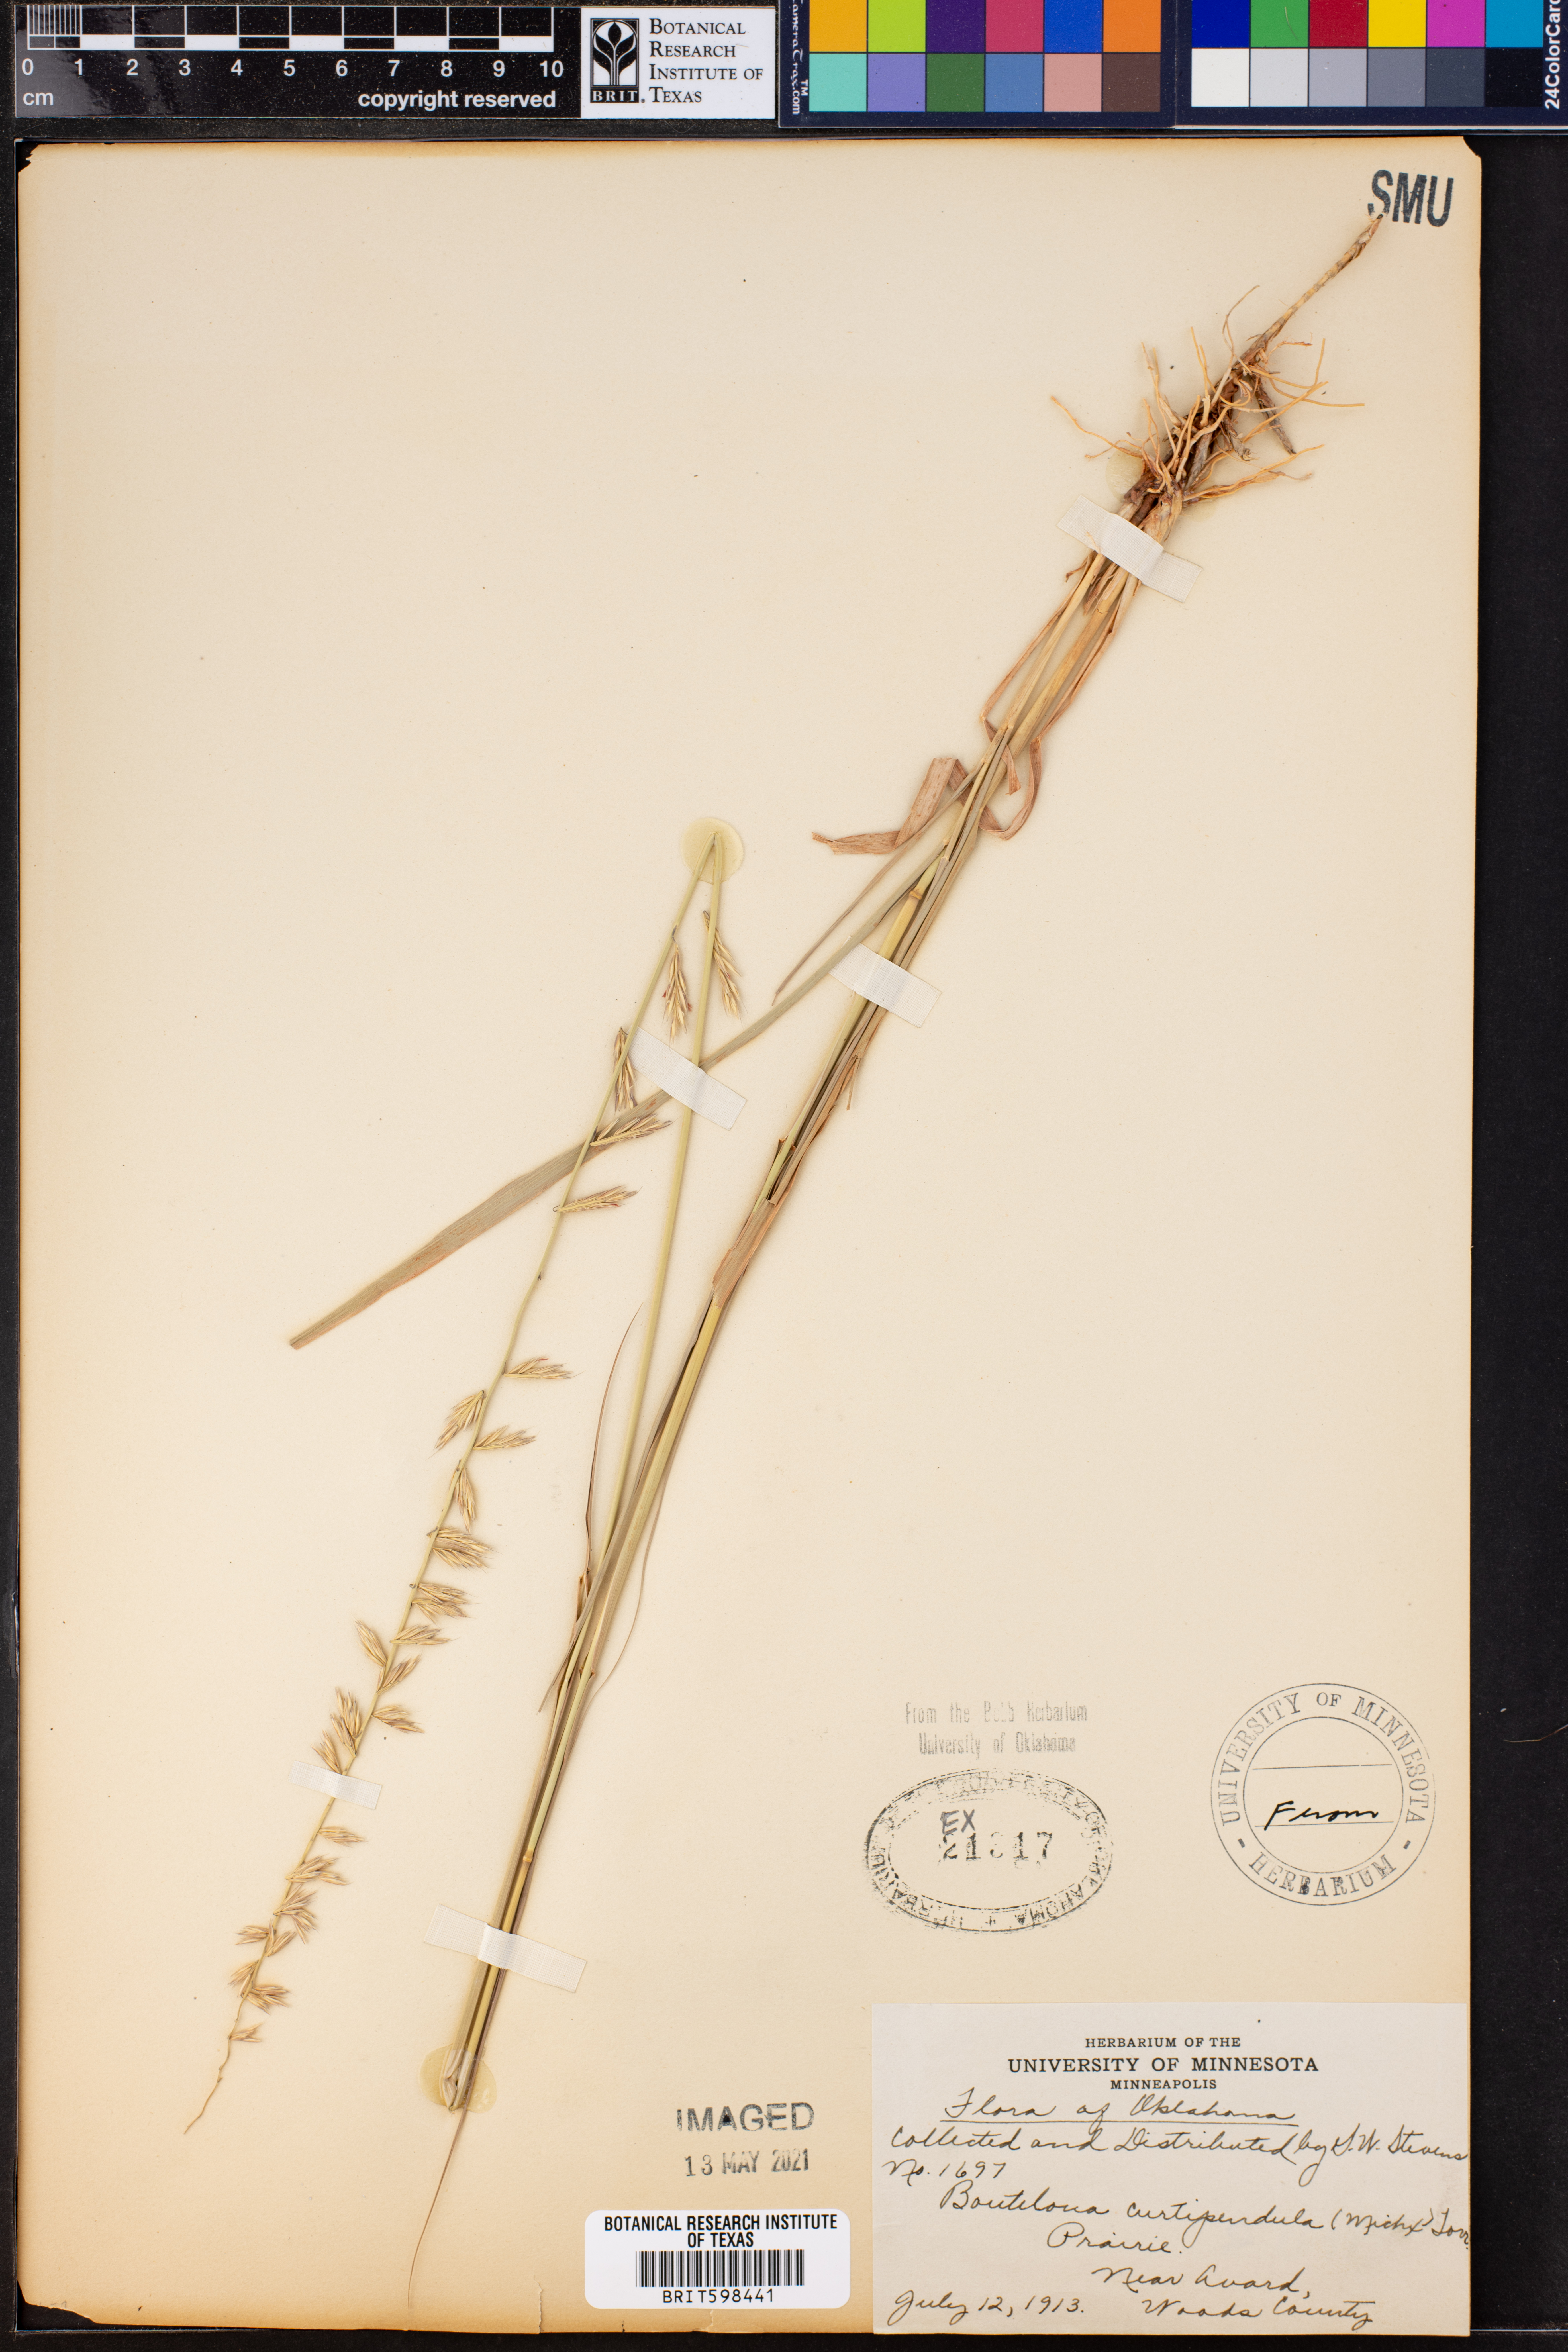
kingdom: Plantae
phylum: Tracheophyta
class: Liliopsida
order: Poales
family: Poaceae
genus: Bouteloua
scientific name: Bouteloua curtipendula
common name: Side-oats grama
